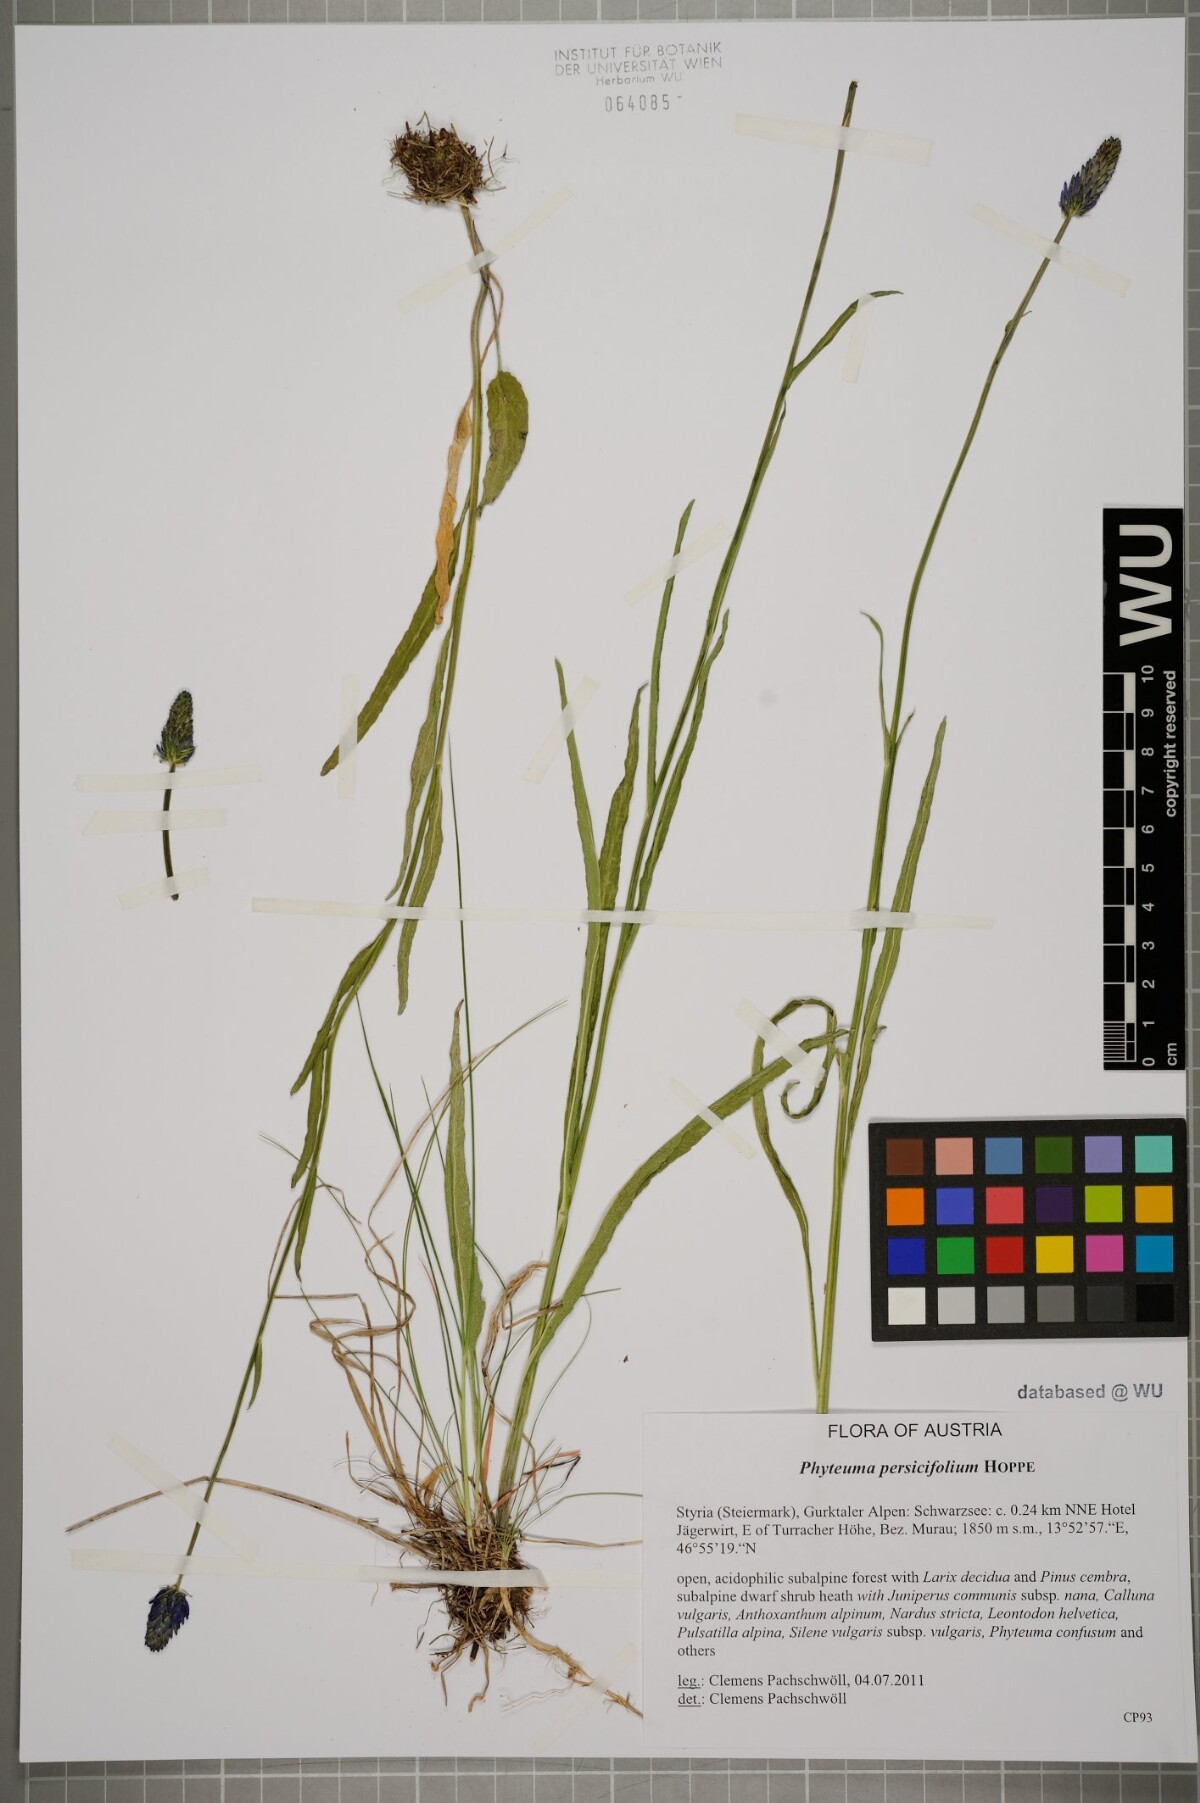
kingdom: Plantae
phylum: Tracheophyta
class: Magnoliopsida
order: Asterales
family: Campanulaceae
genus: Phyteuma
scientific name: Phyteuma persicifolium
